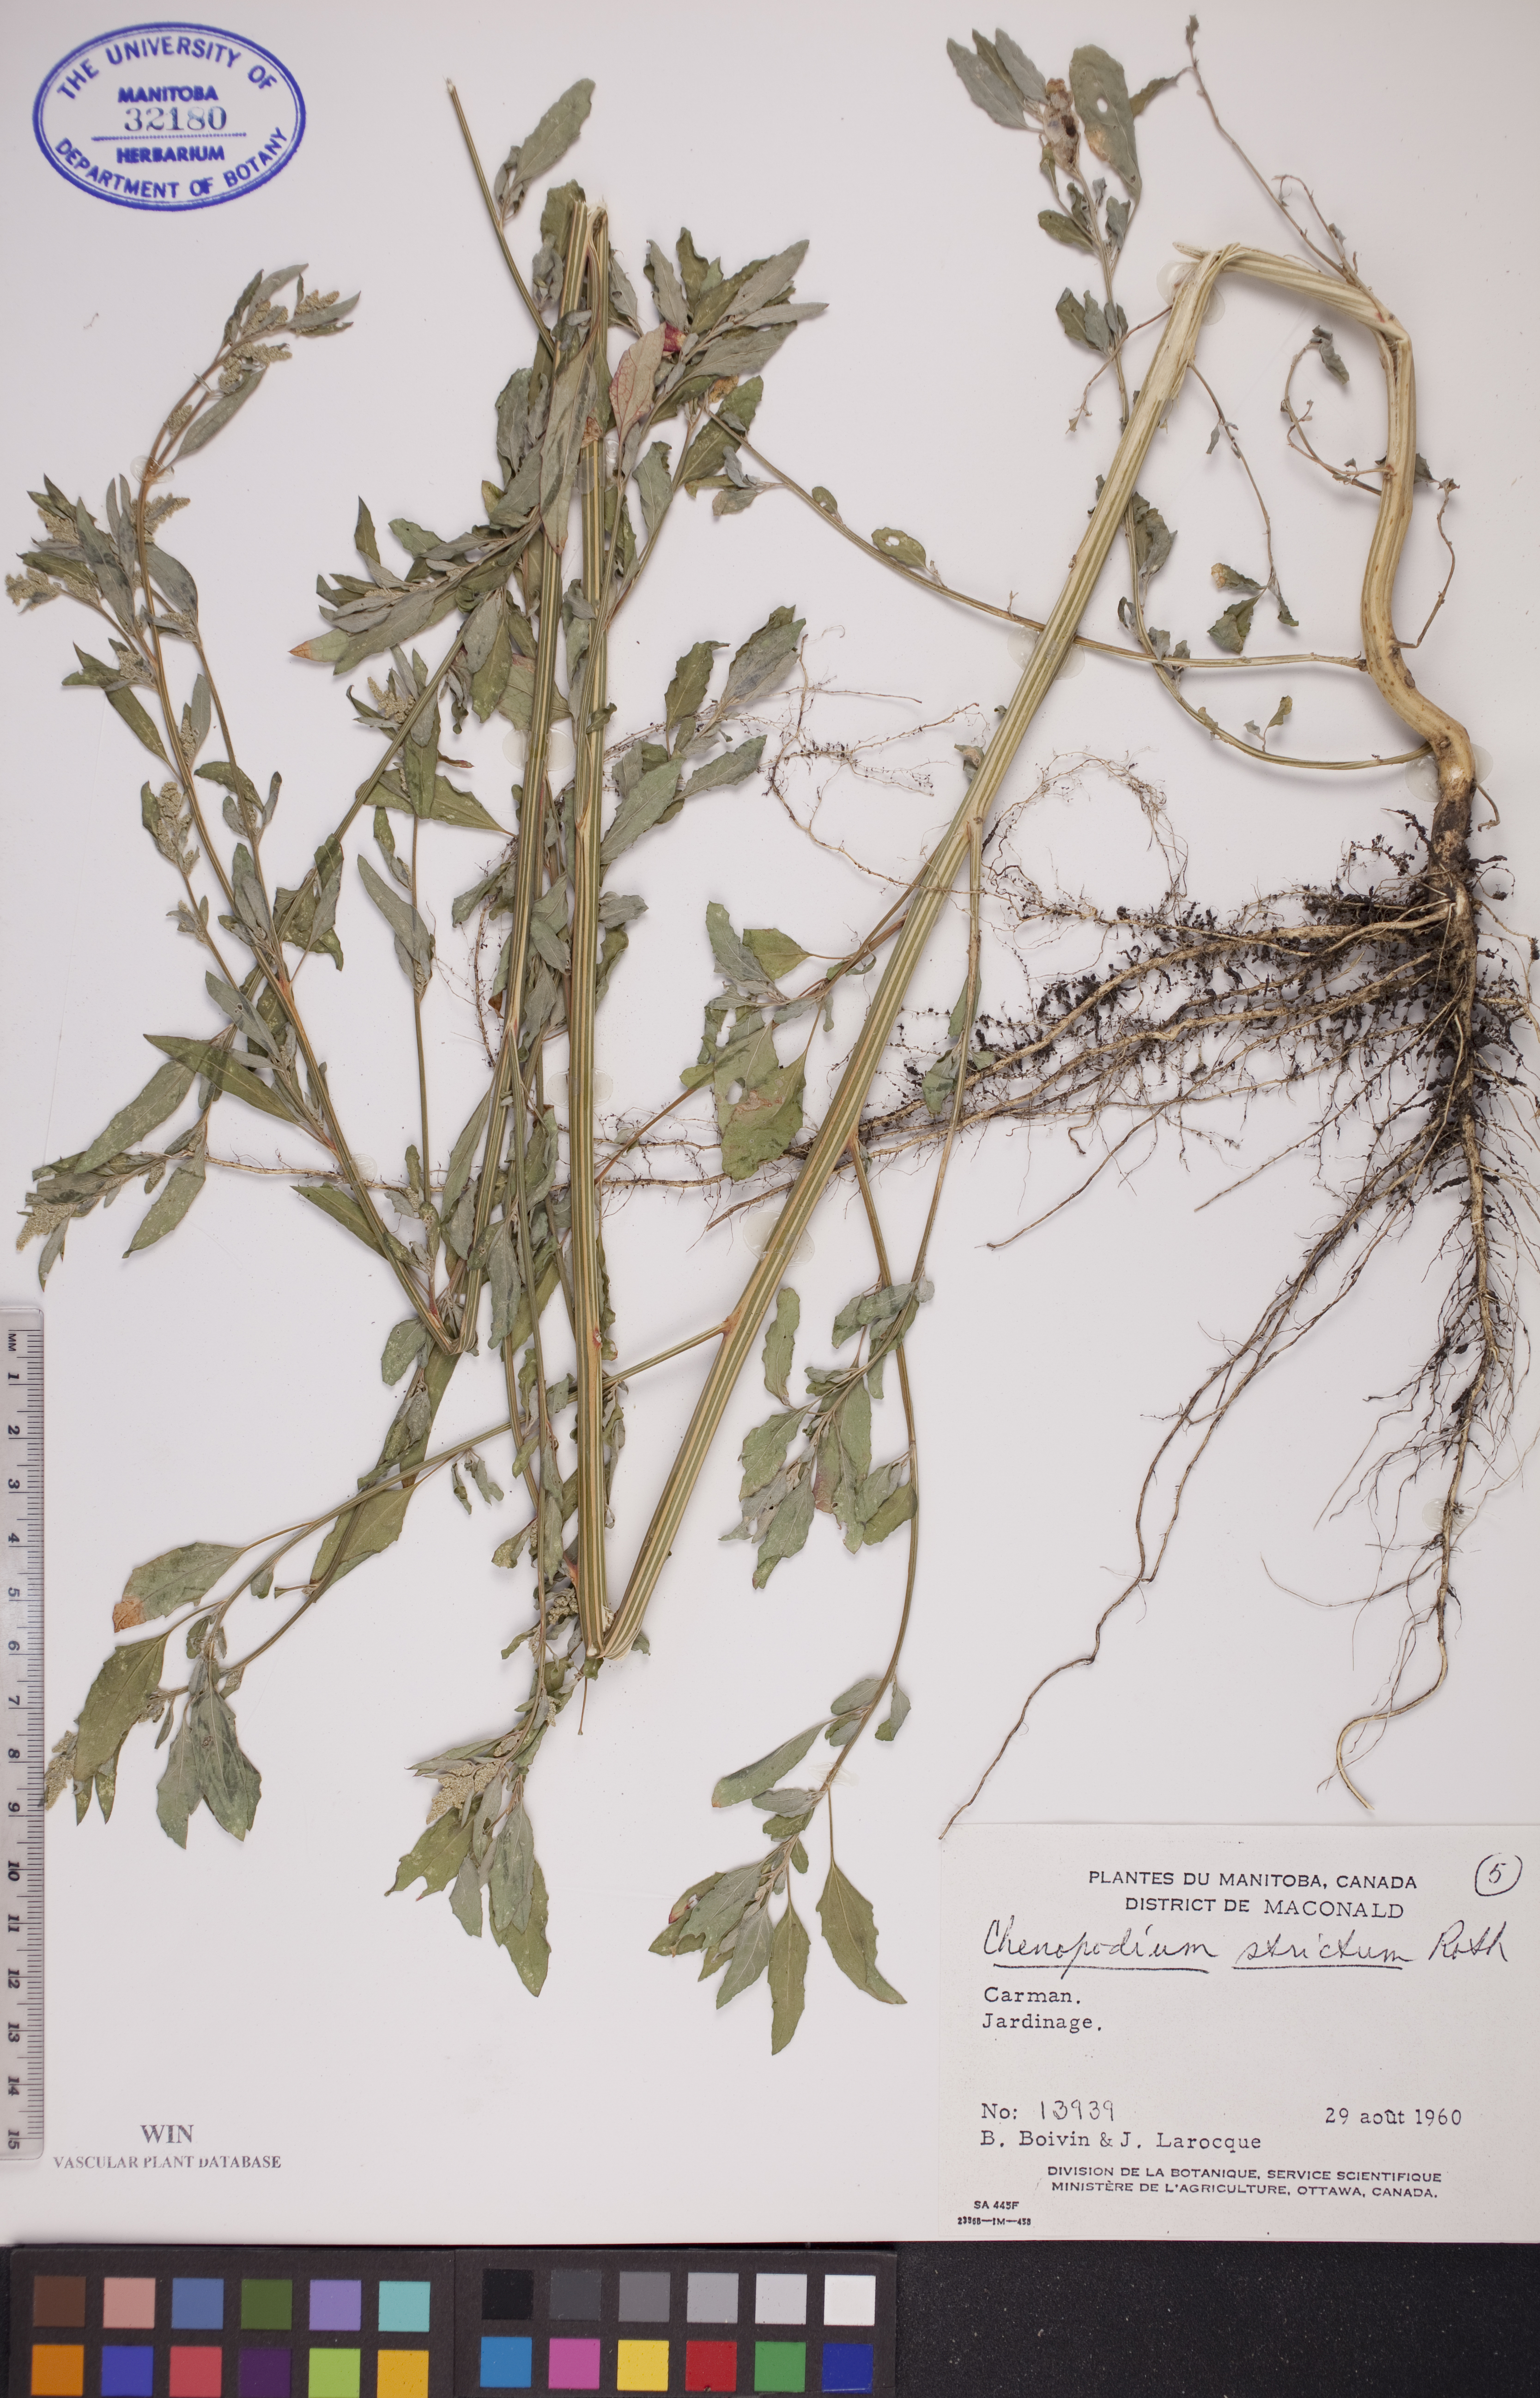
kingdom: Plantae
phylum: Tracheophyta
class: Magnoliopsida
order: Caryophyllales
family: Amaranthaceae
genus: Chenopodium
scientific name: Chenopodium album
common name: Fat-hen
